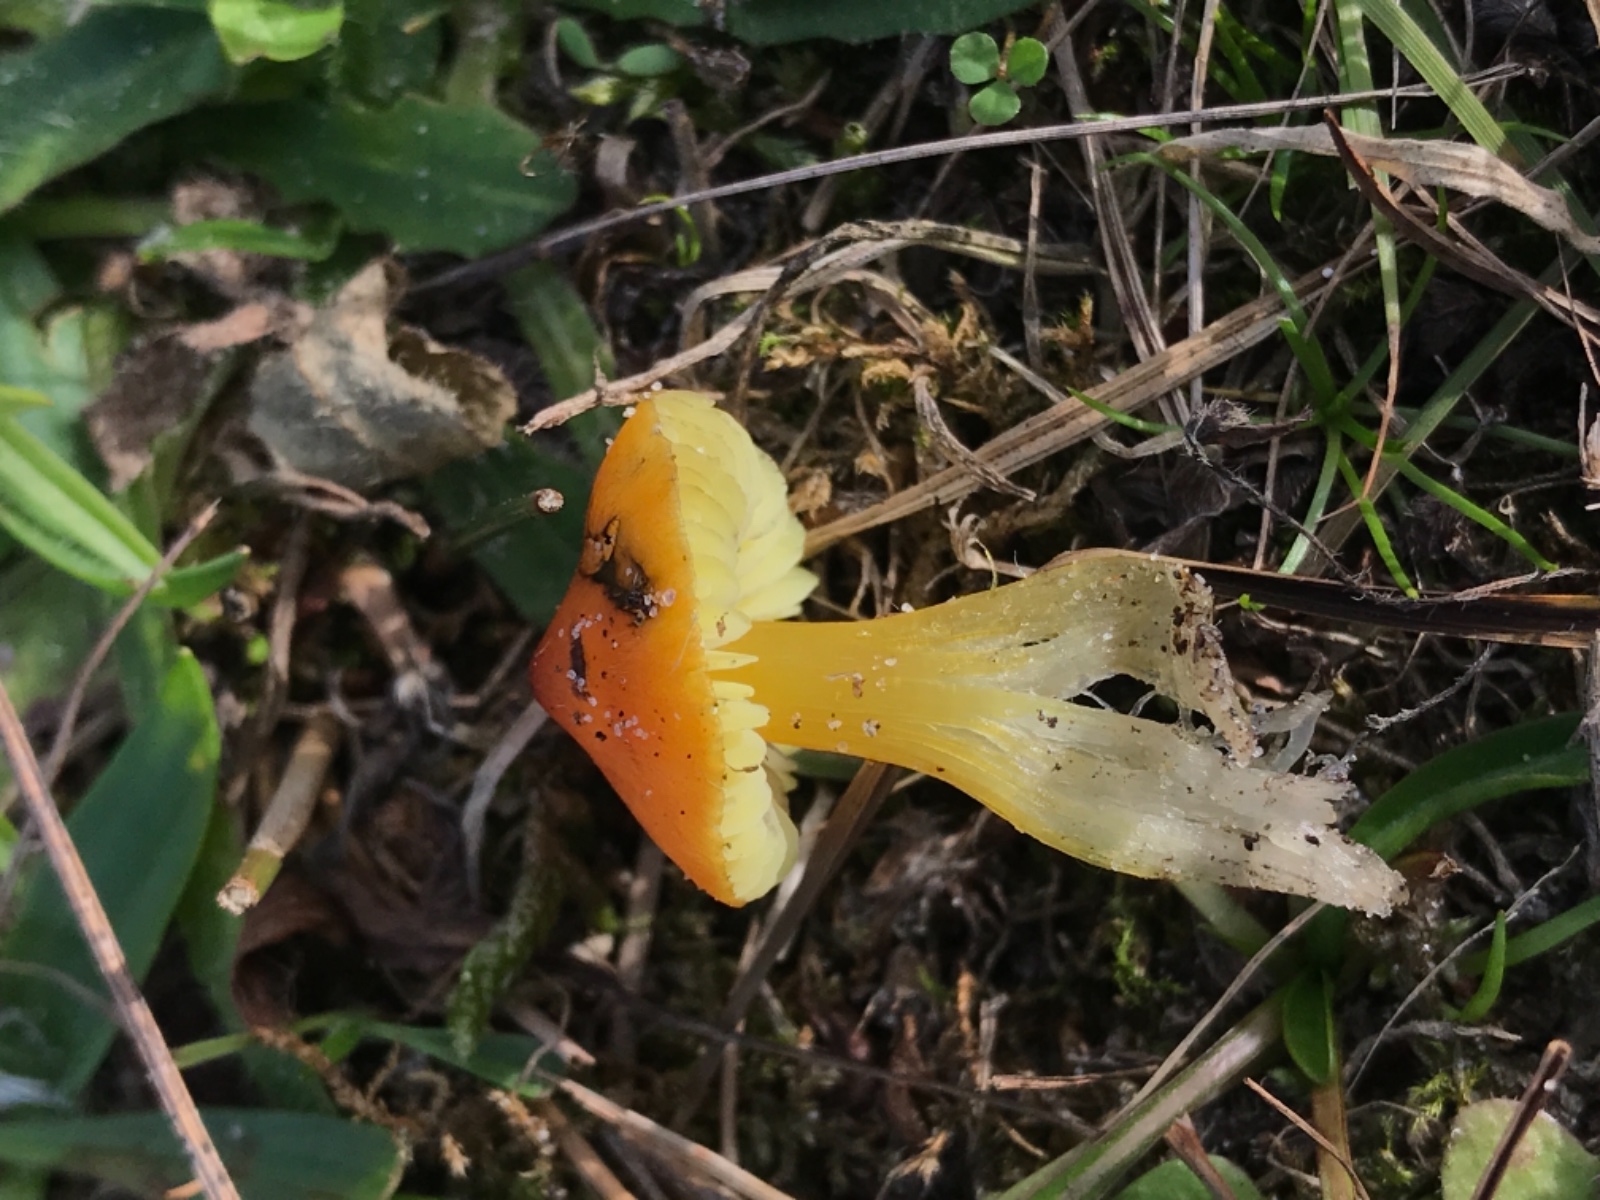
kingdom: Fungi
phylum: Basidiomycota
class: Agaricomycetes
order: Agaricales
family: Hygrophoraceae
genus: Hygrocybe
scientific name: Hygrocybe conica
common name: kegle-vokshat
